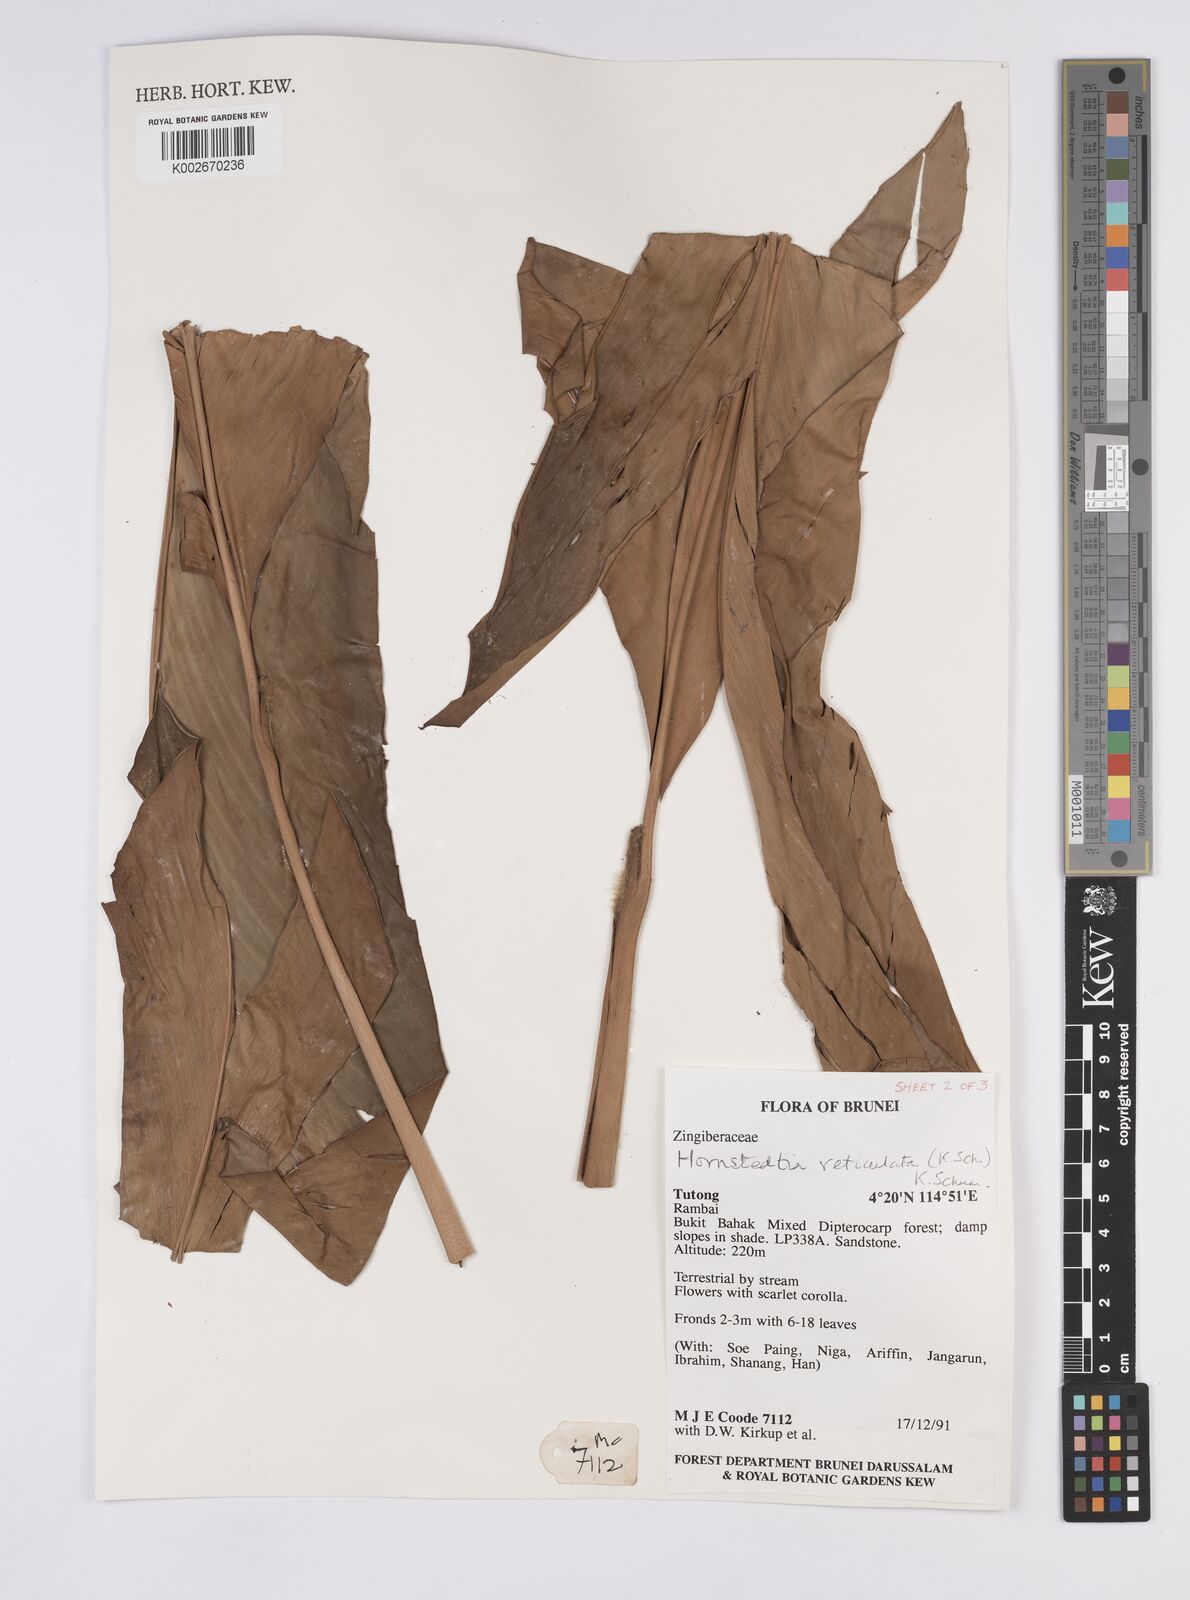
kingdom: Plantae
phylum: Tracheophyta
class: Liliopsida
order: Zingiberales
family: Zingiberaceae
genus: Hornstedtia
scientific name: Hornstedtia reticulata
